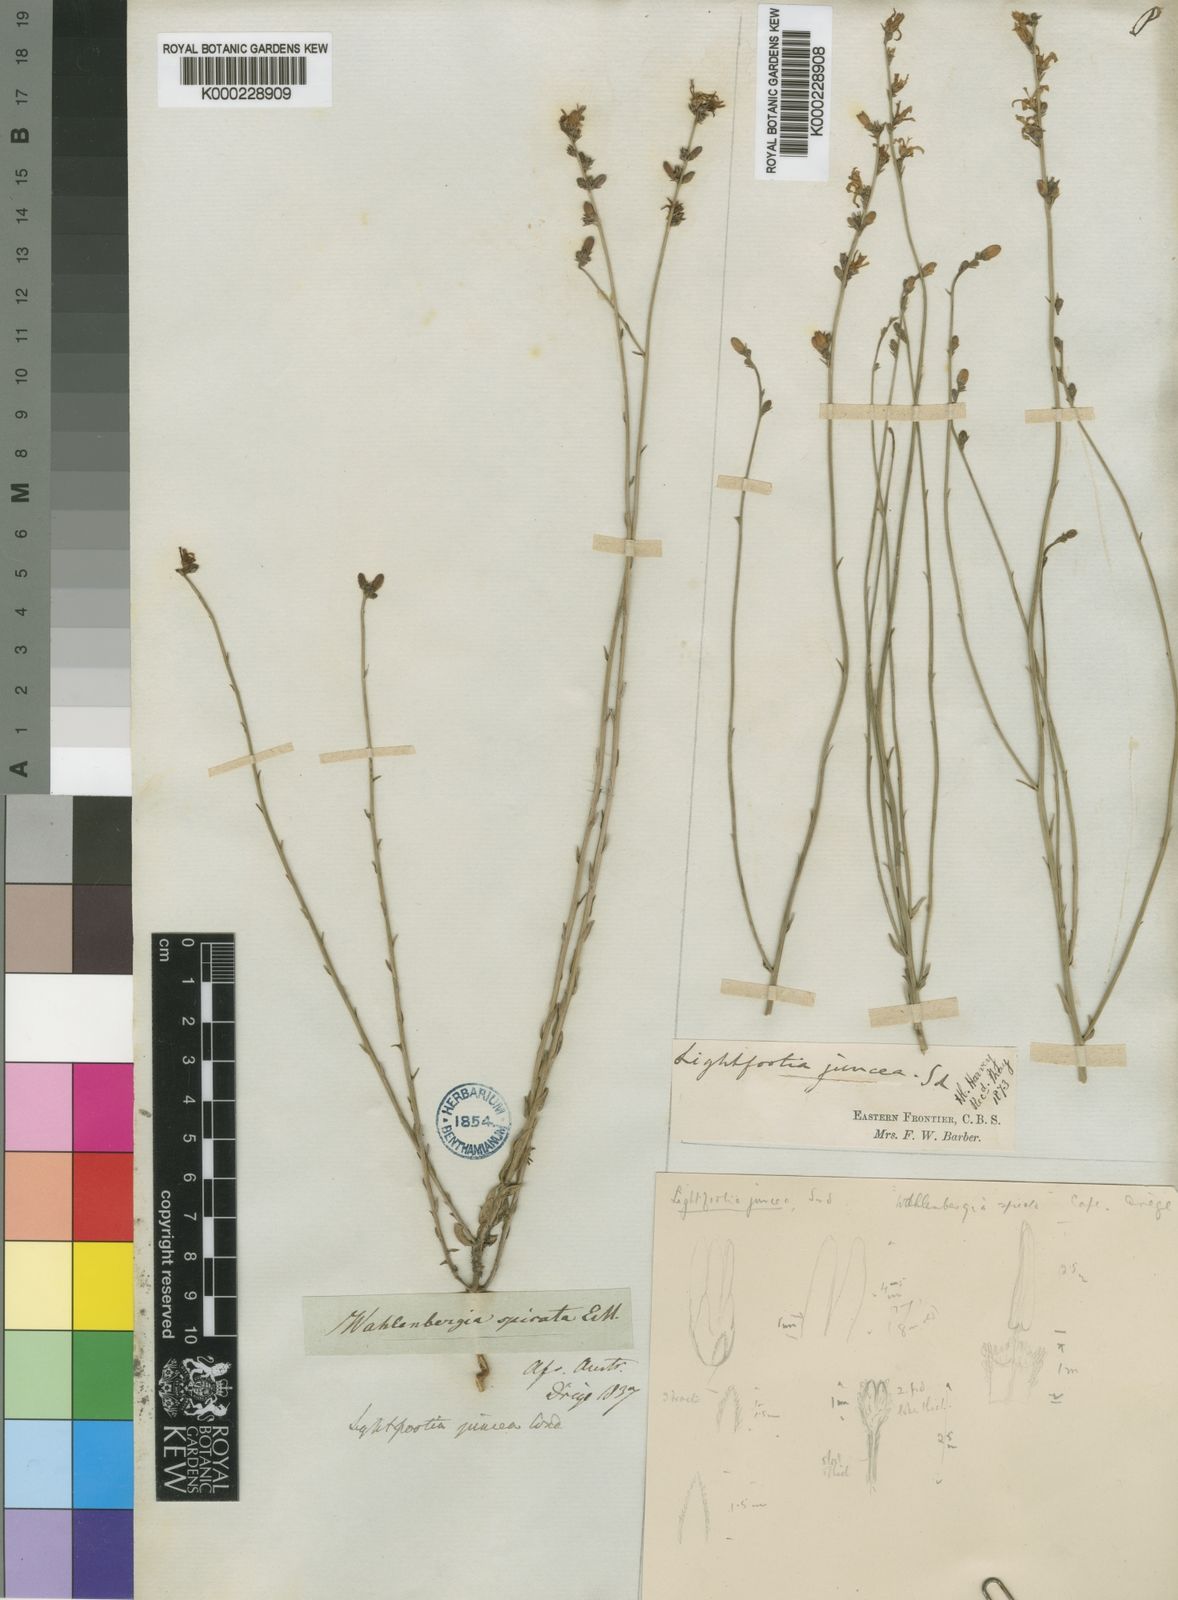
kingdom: Plantae
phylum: Tracheophyta
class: Magnoliopsida
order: Asterales
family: Campanulaceae
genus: Wahlenbergia
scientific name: Wahlenbergia juncea
